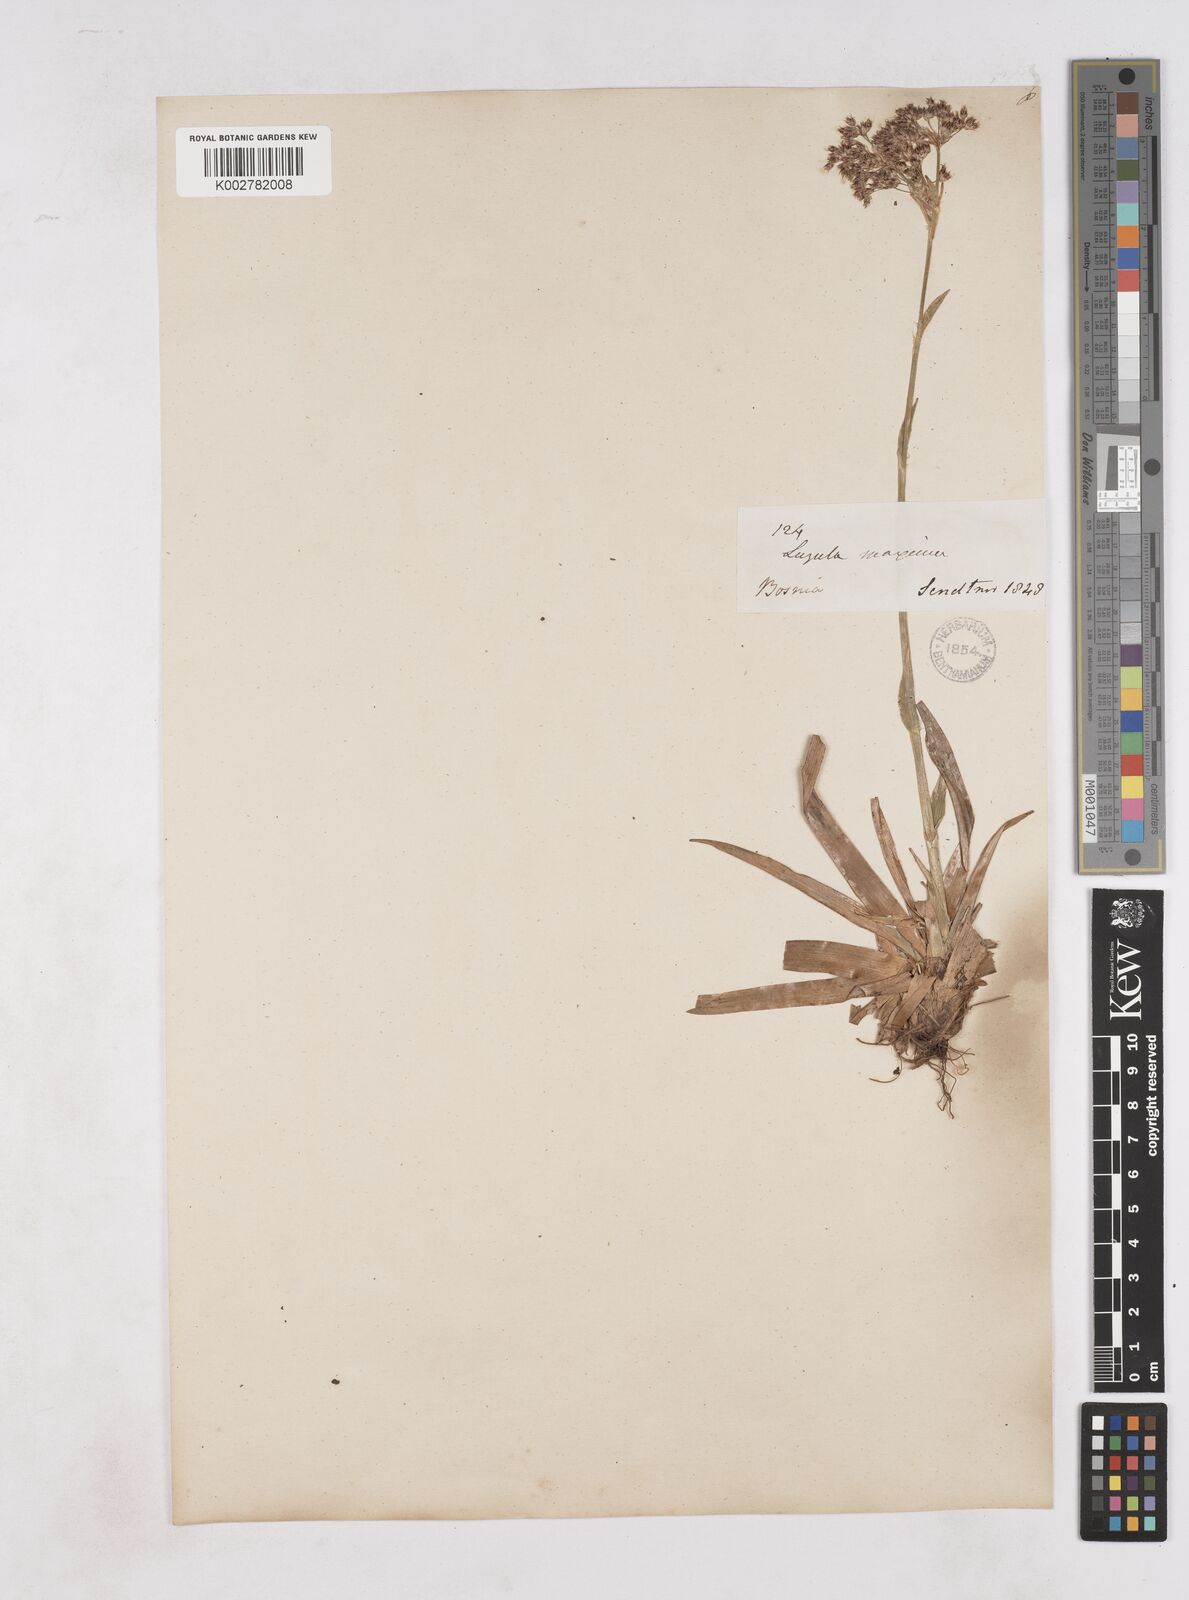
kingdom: Plantae
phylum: Tracheophyta
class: Liliopsida
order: Poales
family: Juncaceae
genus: Luzula
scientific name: Luzula sylvatica
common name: Great wood-rush
